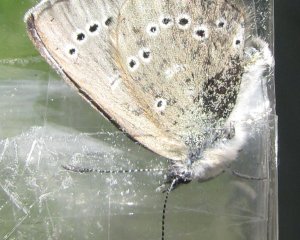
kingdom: Animalia
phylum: Arthropoda
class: Insecta
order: Lepidoptera
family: Lycaenidae
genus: Glaucopsyche
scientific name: Glaucopsyche lygdamus
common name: Silvery Blue
